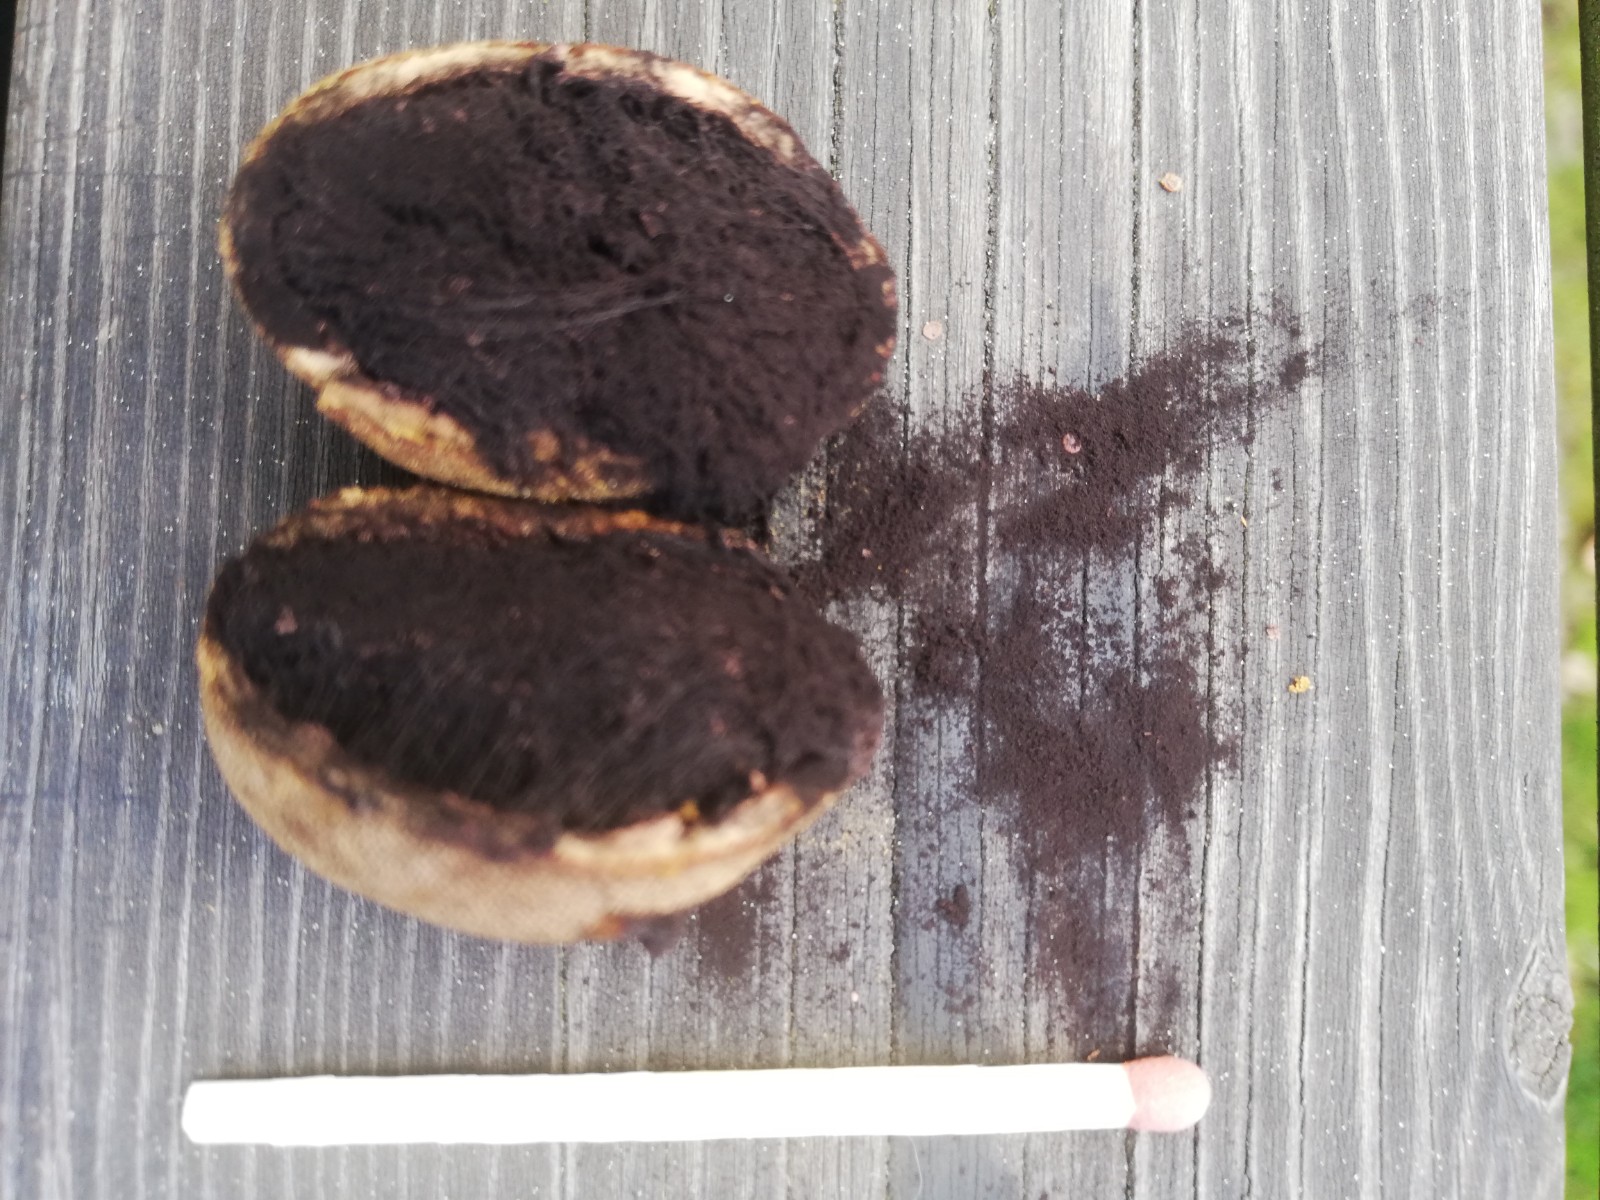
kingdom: Fungi
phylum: Ascomycota
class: Eurotiomycetes
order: Eurotiales
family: Elaphomycetaceae
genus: Elaphomyces
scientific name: Elaphomyces granulatus
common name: grynet hjortetrøffel
